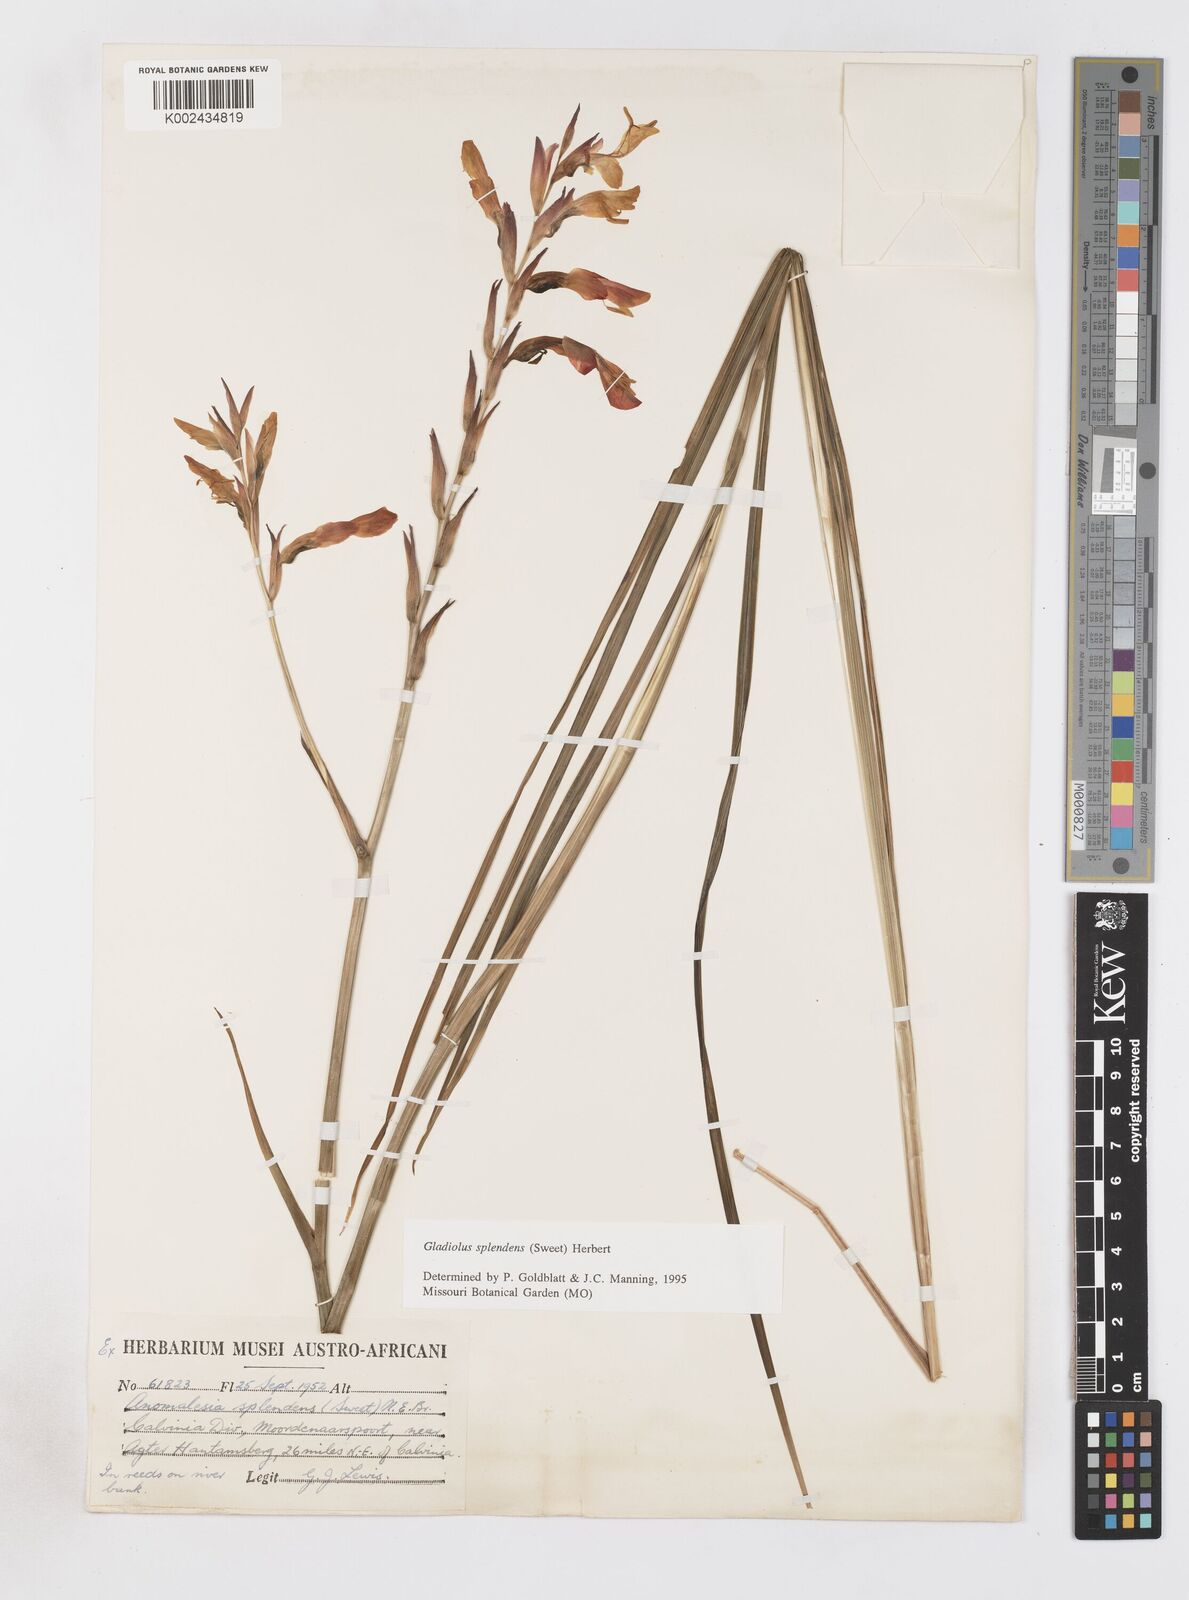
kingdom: Plantae
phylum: Tracheophyta
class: Liliopsida
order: Asparagales
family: Iridaceae
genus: Gladiolus
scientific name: Gladiolus splendens
